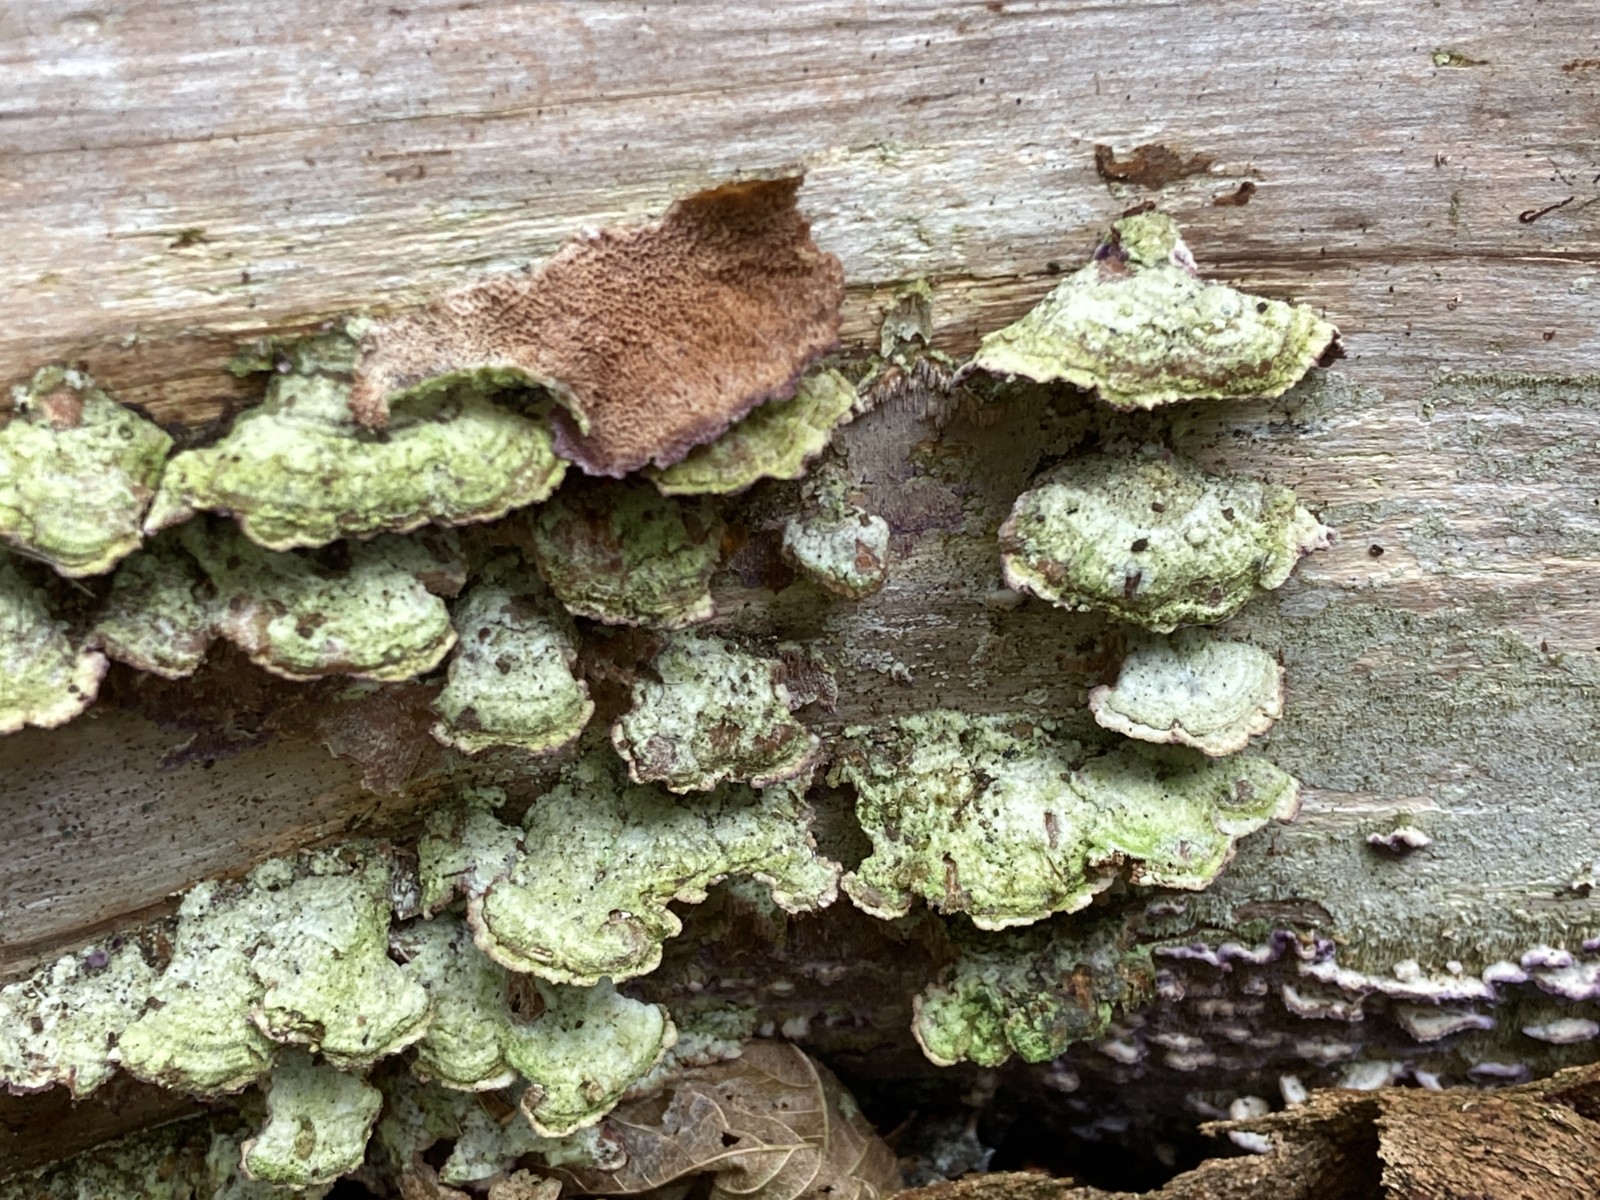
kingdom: Fungi
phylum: Basidiomycota
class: Agaricomycetes
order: Hymenochaetales
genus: Trichaptum
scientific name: Trichaptum abietinum
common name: almindelig violporesvamp
